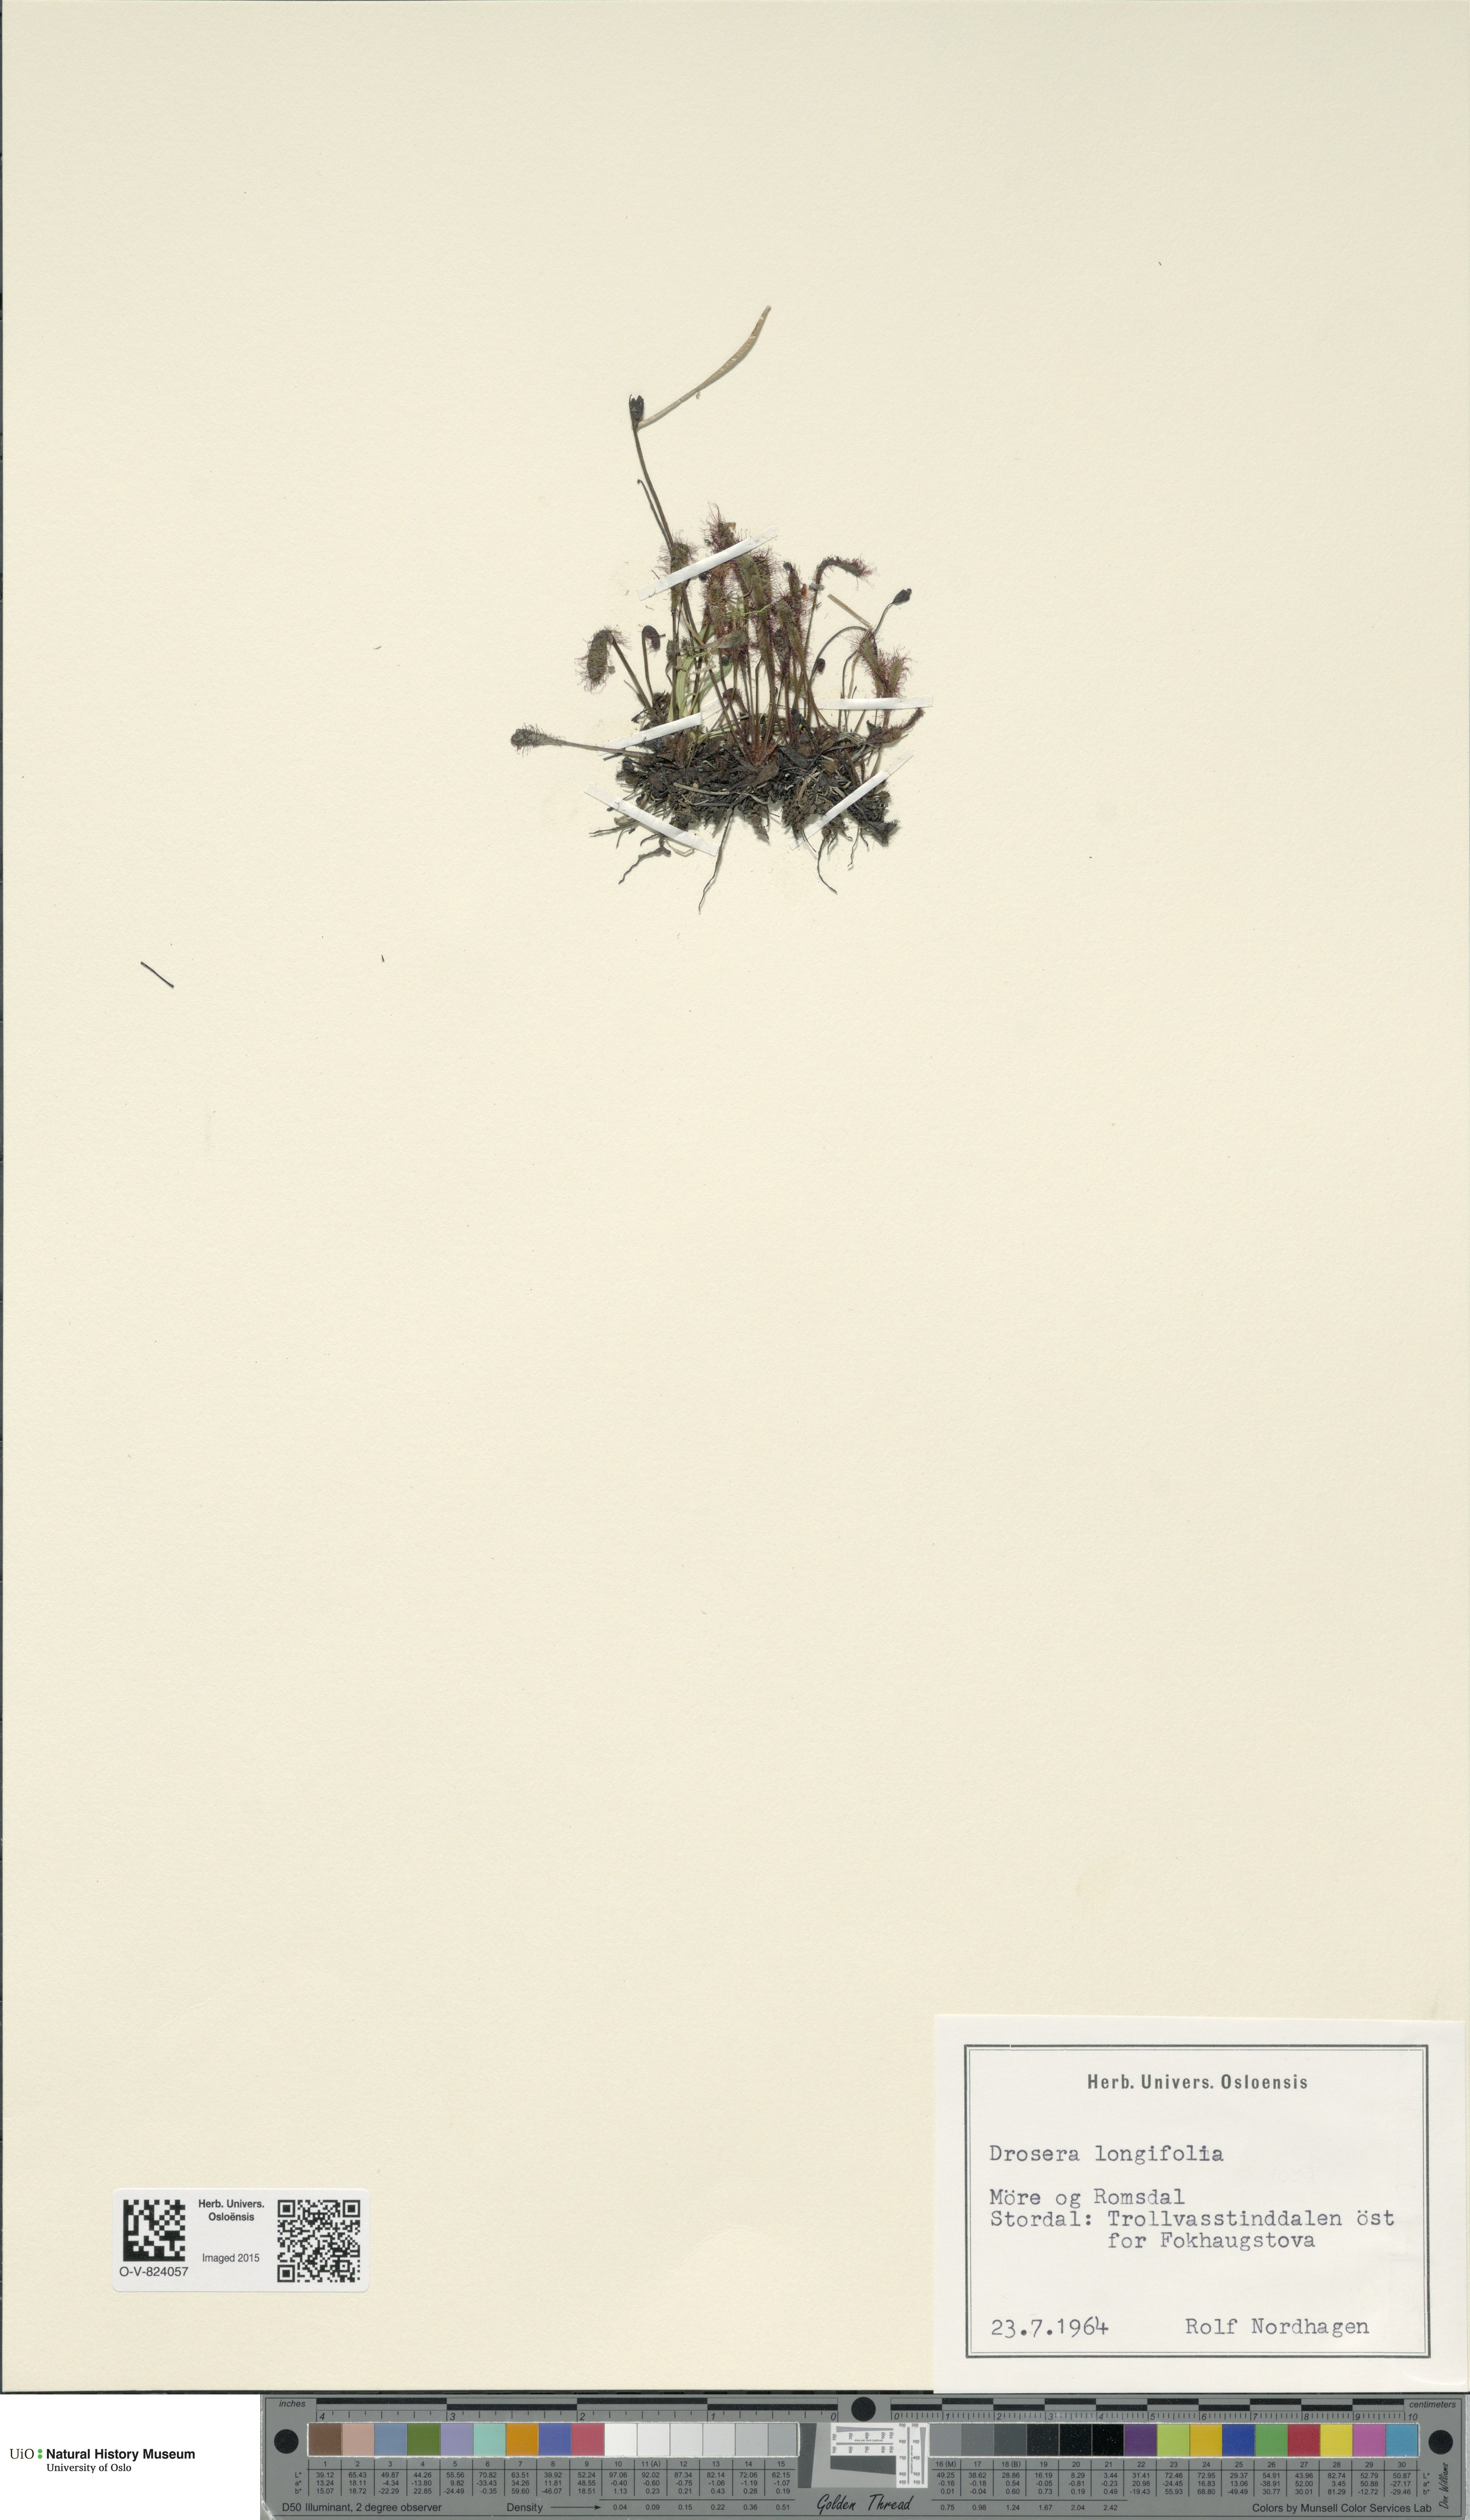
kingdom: Plantae
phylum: Tracheophyta
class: Magnoliopsida
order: Caryophyllales
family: Droseraceae
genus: Drosera
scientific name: Drosera anglica
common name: Great sundew
